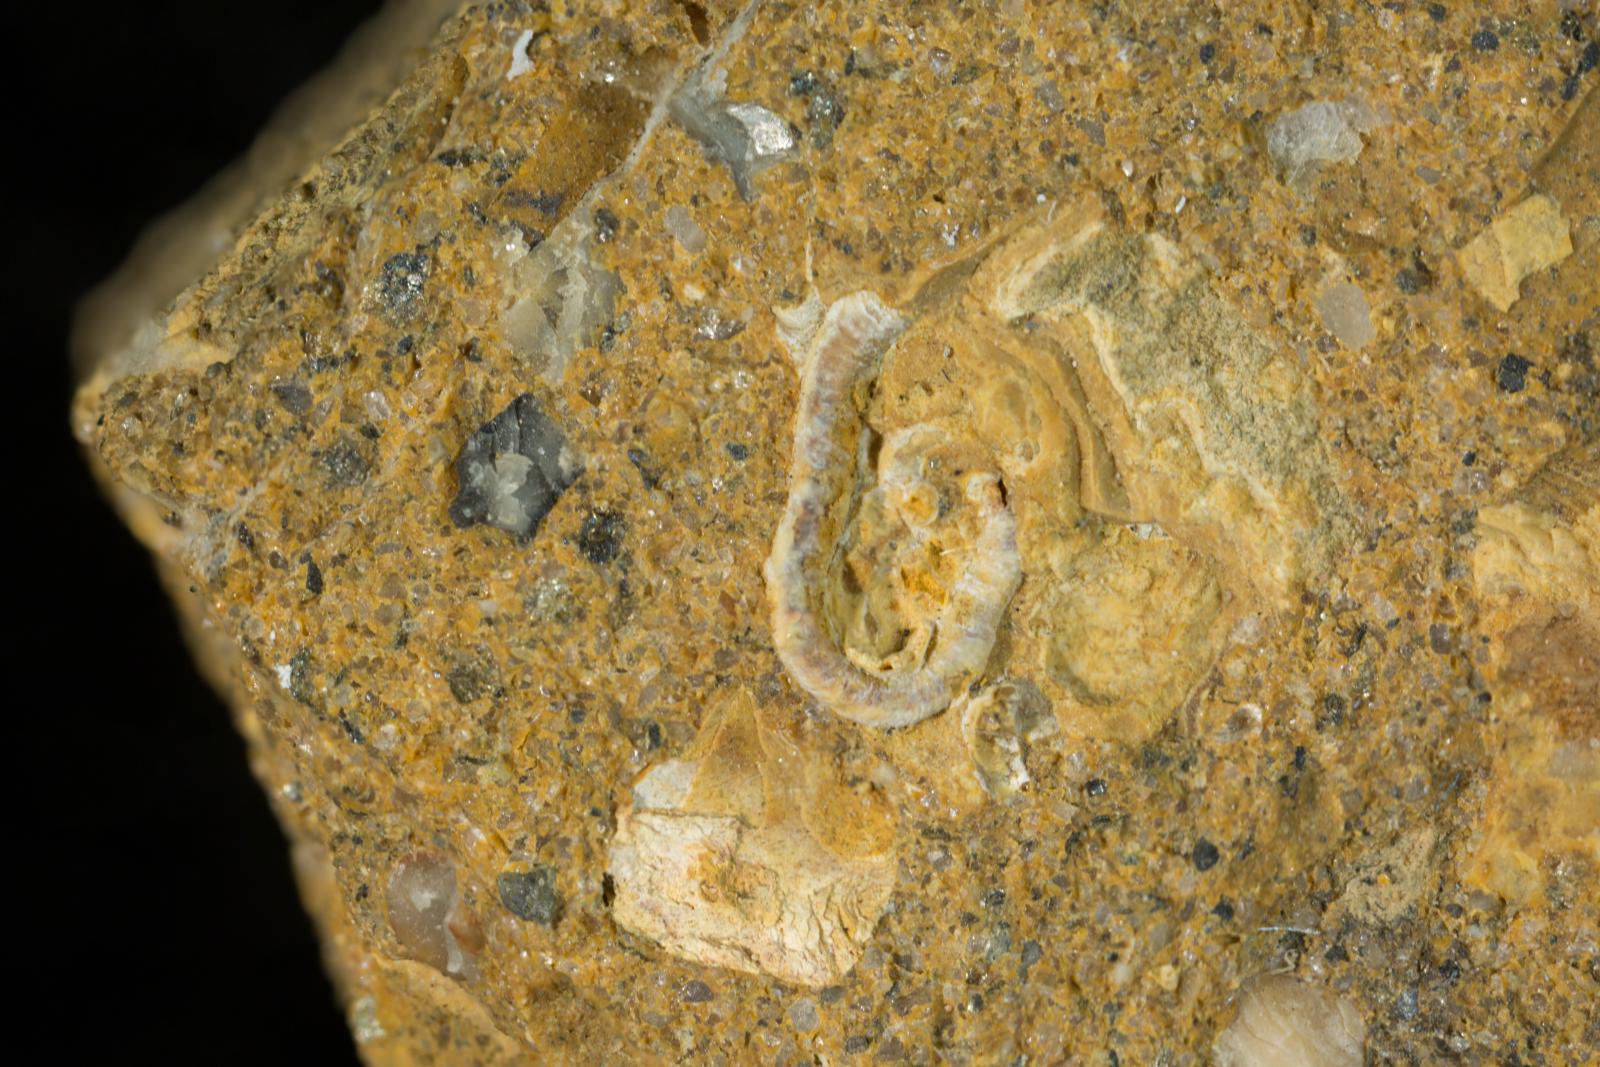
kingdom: Animalia
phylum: Annelida
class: Polychaeta
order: Sabellida
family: Serpulidae
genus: Rotularia
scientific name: Rotularia
